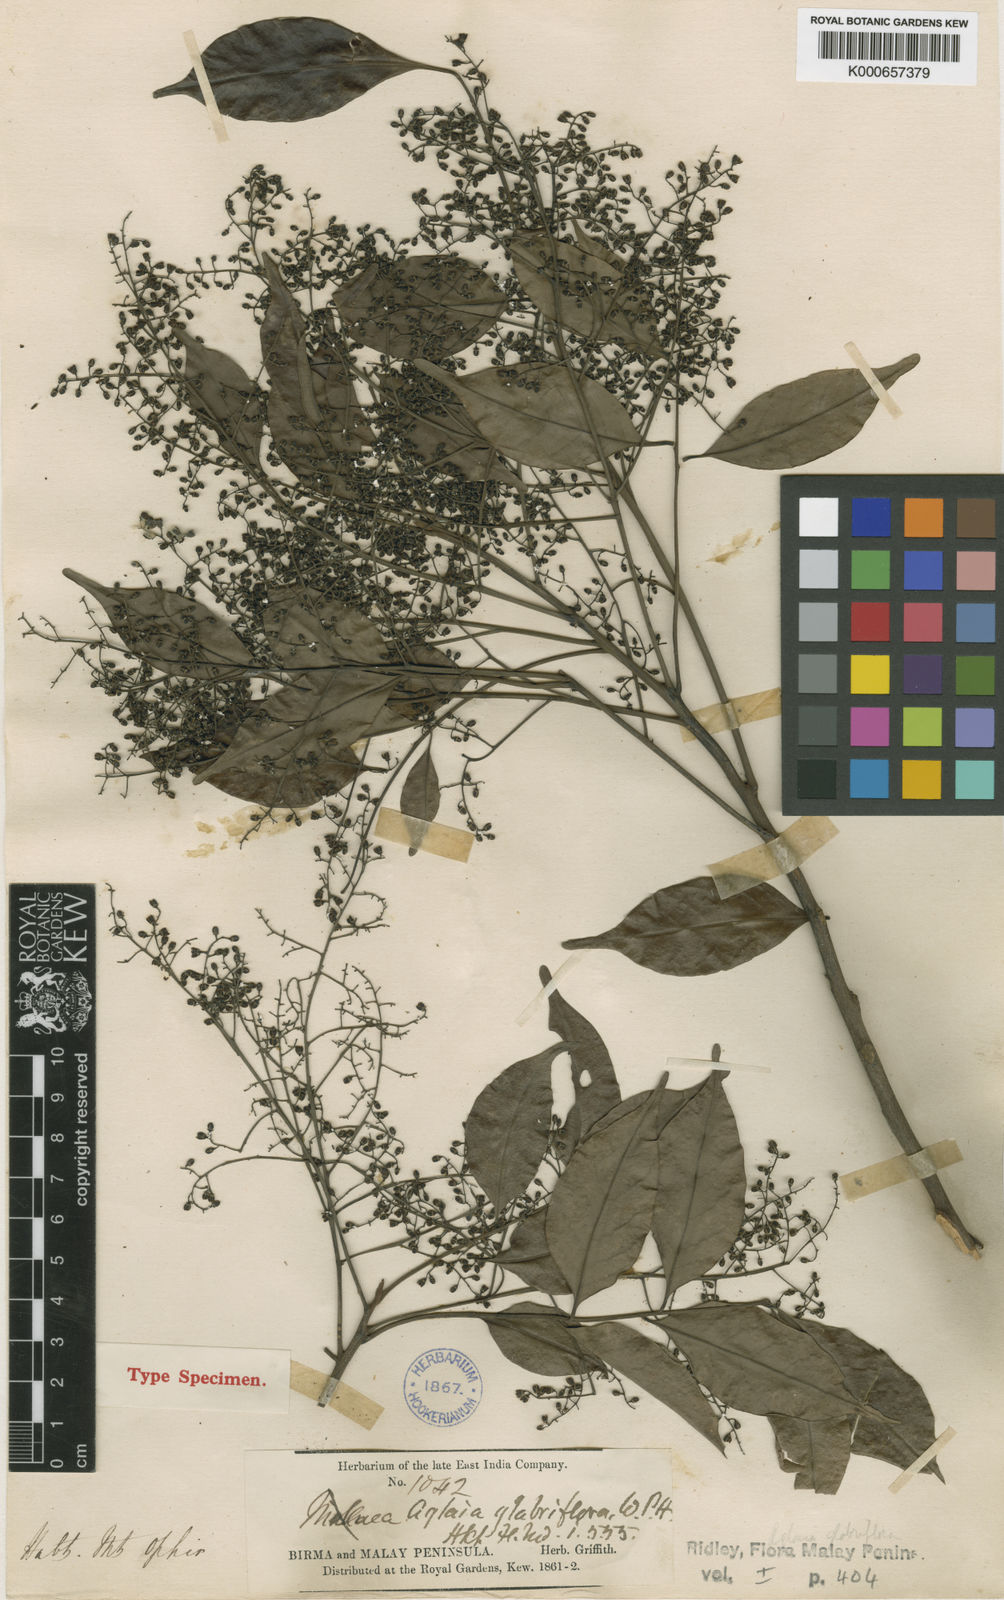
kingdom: Plantae
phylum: Tracheophyta
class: Magnoliopsida
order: Sapindales
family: Meliaceae
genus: Aglaia
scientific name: Aglaia leptantha
